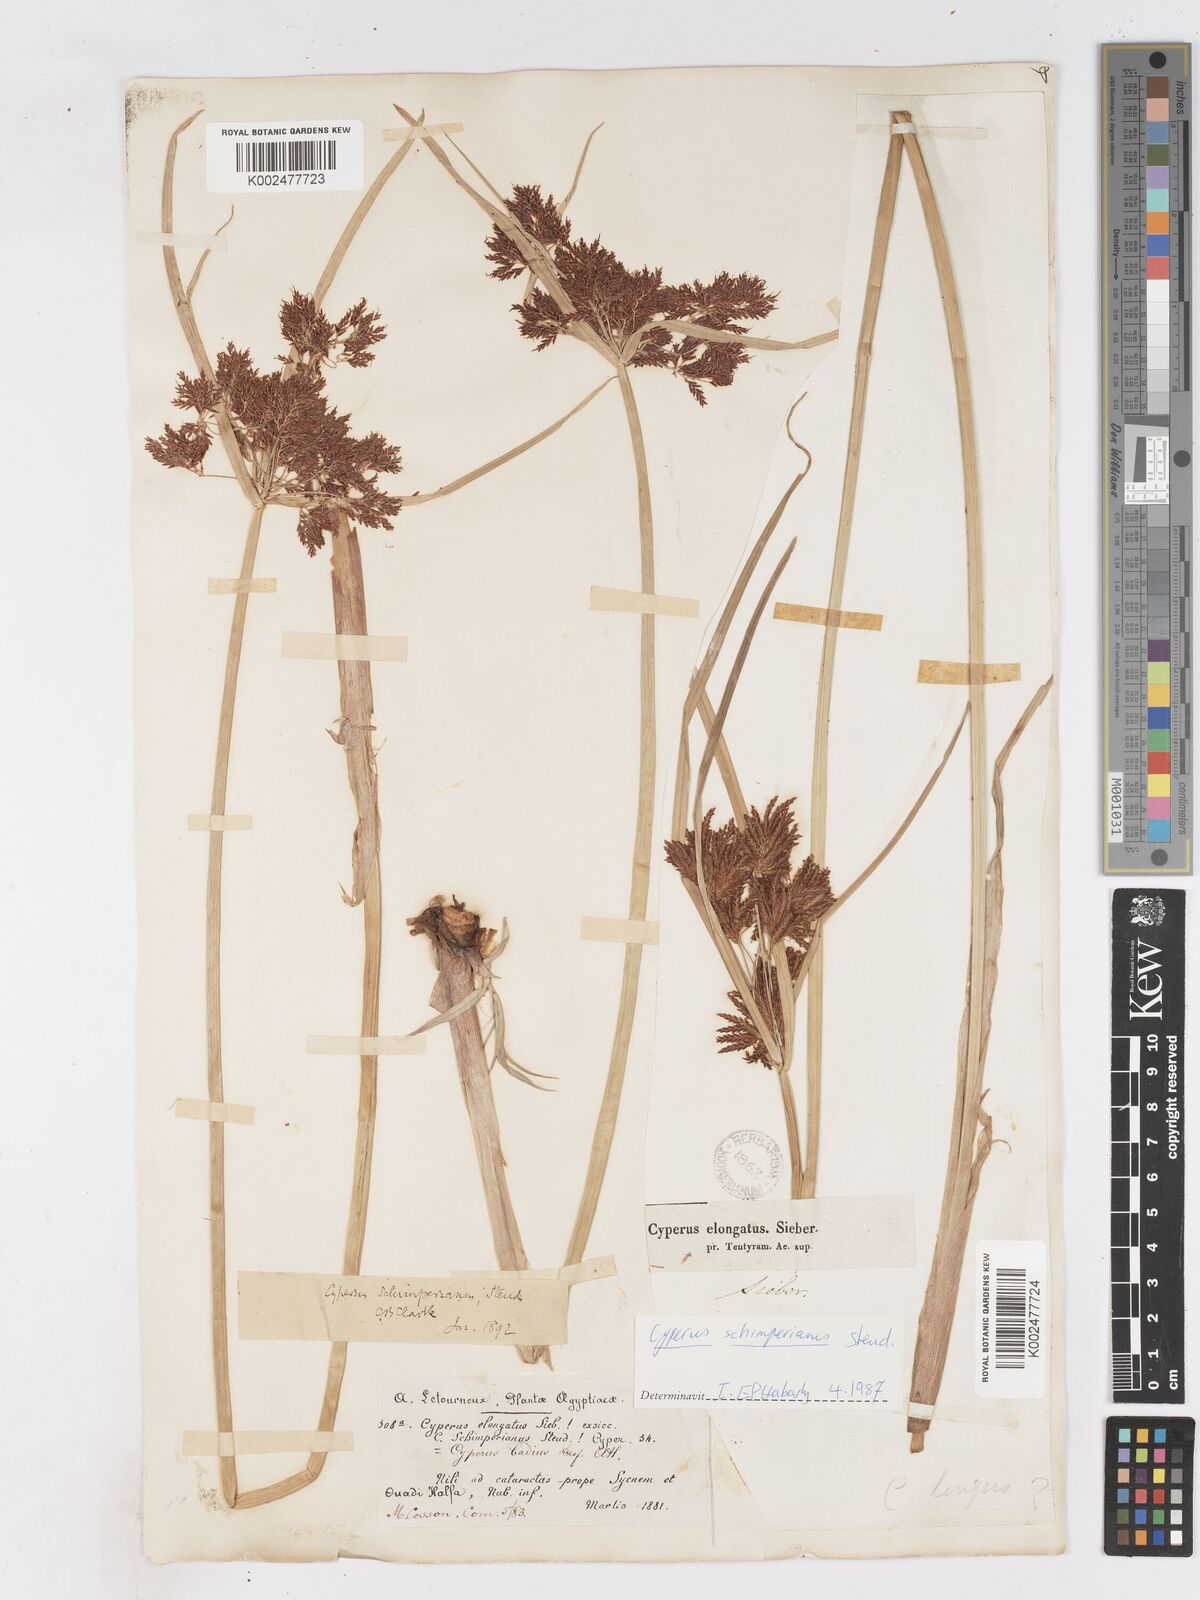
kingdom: Plantae
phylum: Tracheophyta
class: Liliopsida
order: Poales
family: Cyperaceae
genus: Cyperus
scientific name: Cyperus schimperianus
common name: Schimper flatsedge
